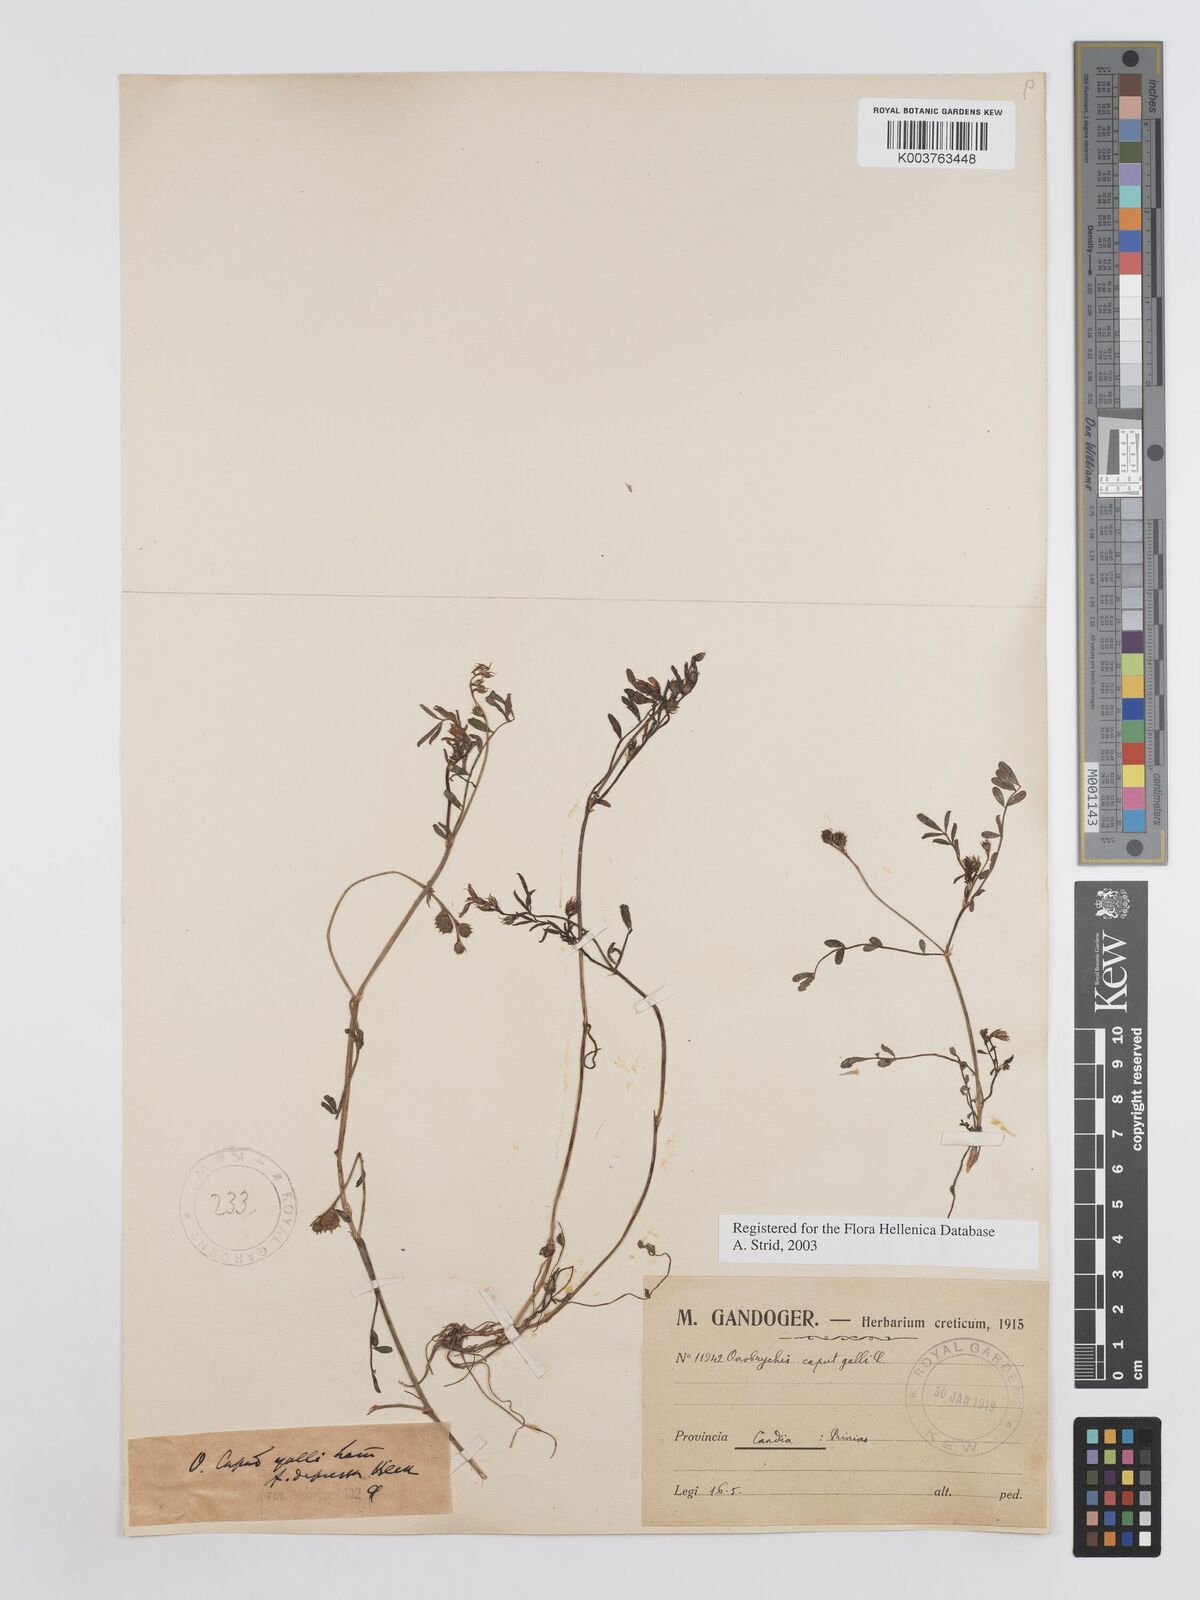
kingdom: Plantae
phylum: Tracheophyta
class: Magnoliopsida
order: Fabales
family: Fabaceae
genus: Onobrychis
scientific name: Onobrychis caput-galli
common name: Cockscomb sainfoin
